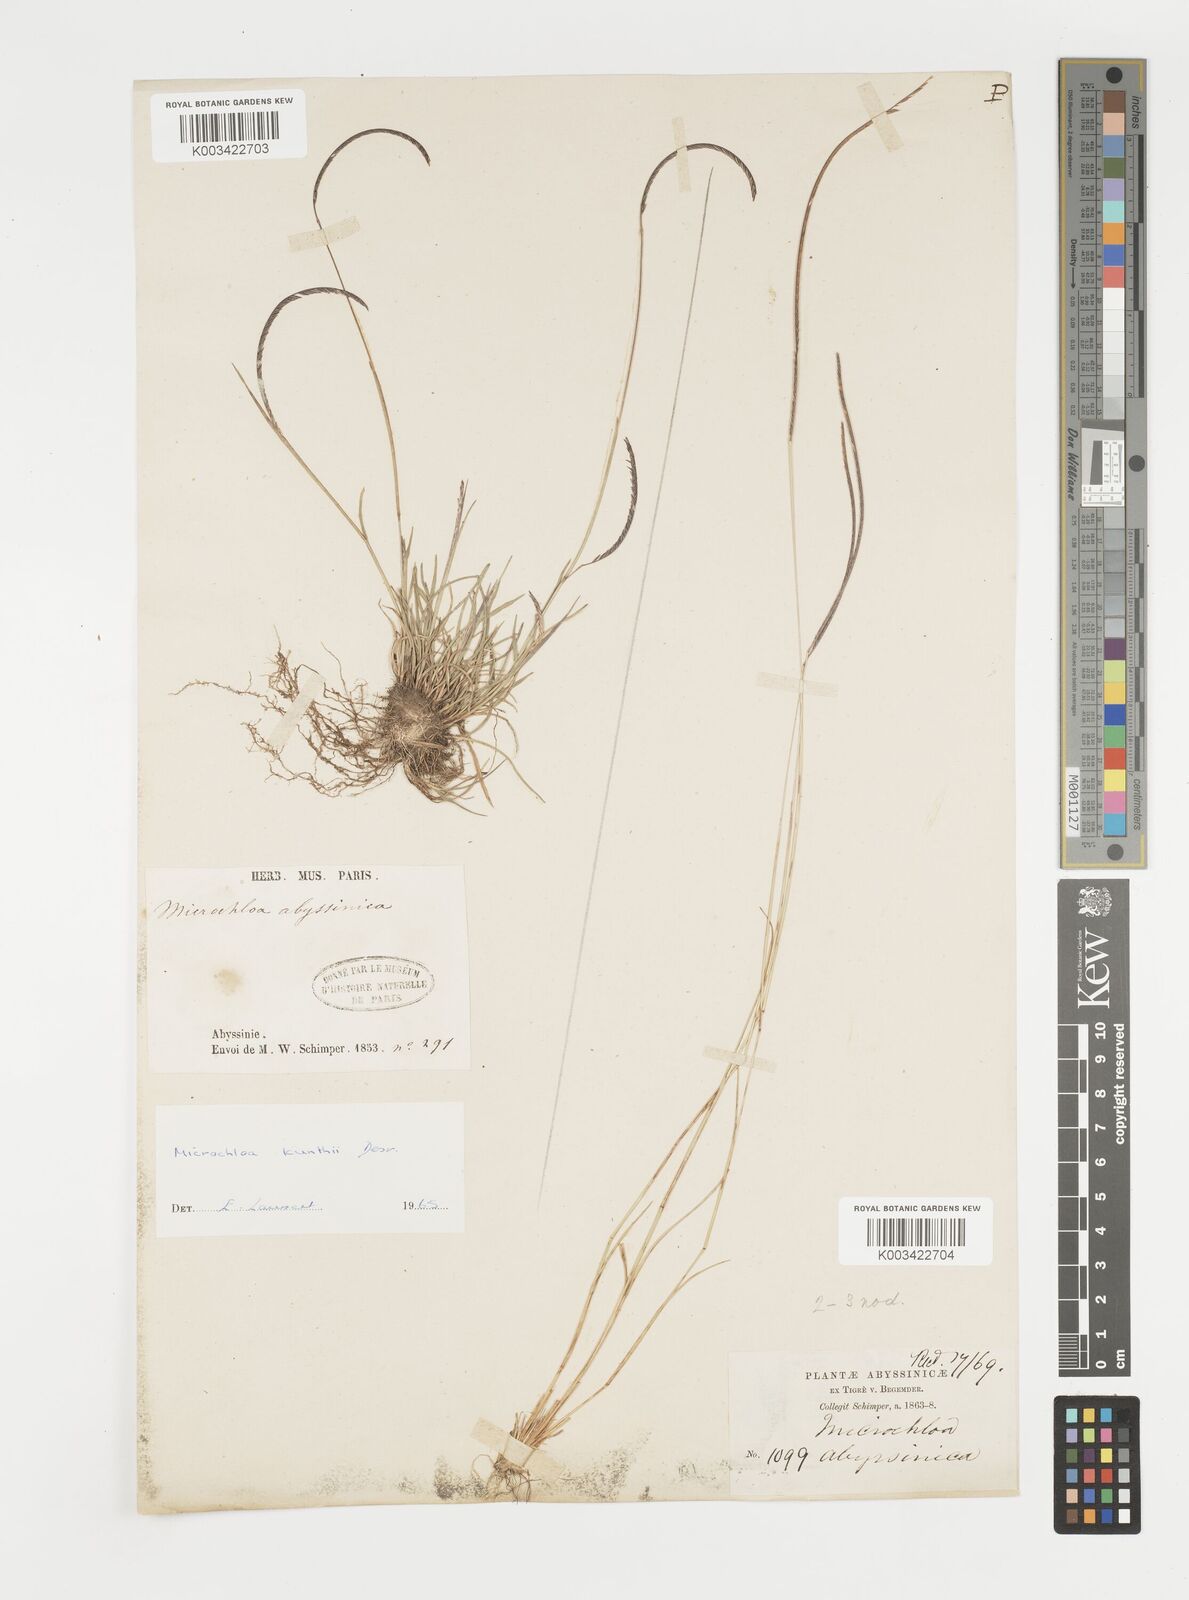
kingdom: Plantae
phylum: Tracheophyta
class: Liliopsida
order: Poales
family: Poaceae
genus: Microchloa
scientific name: Microchloa kunthii
